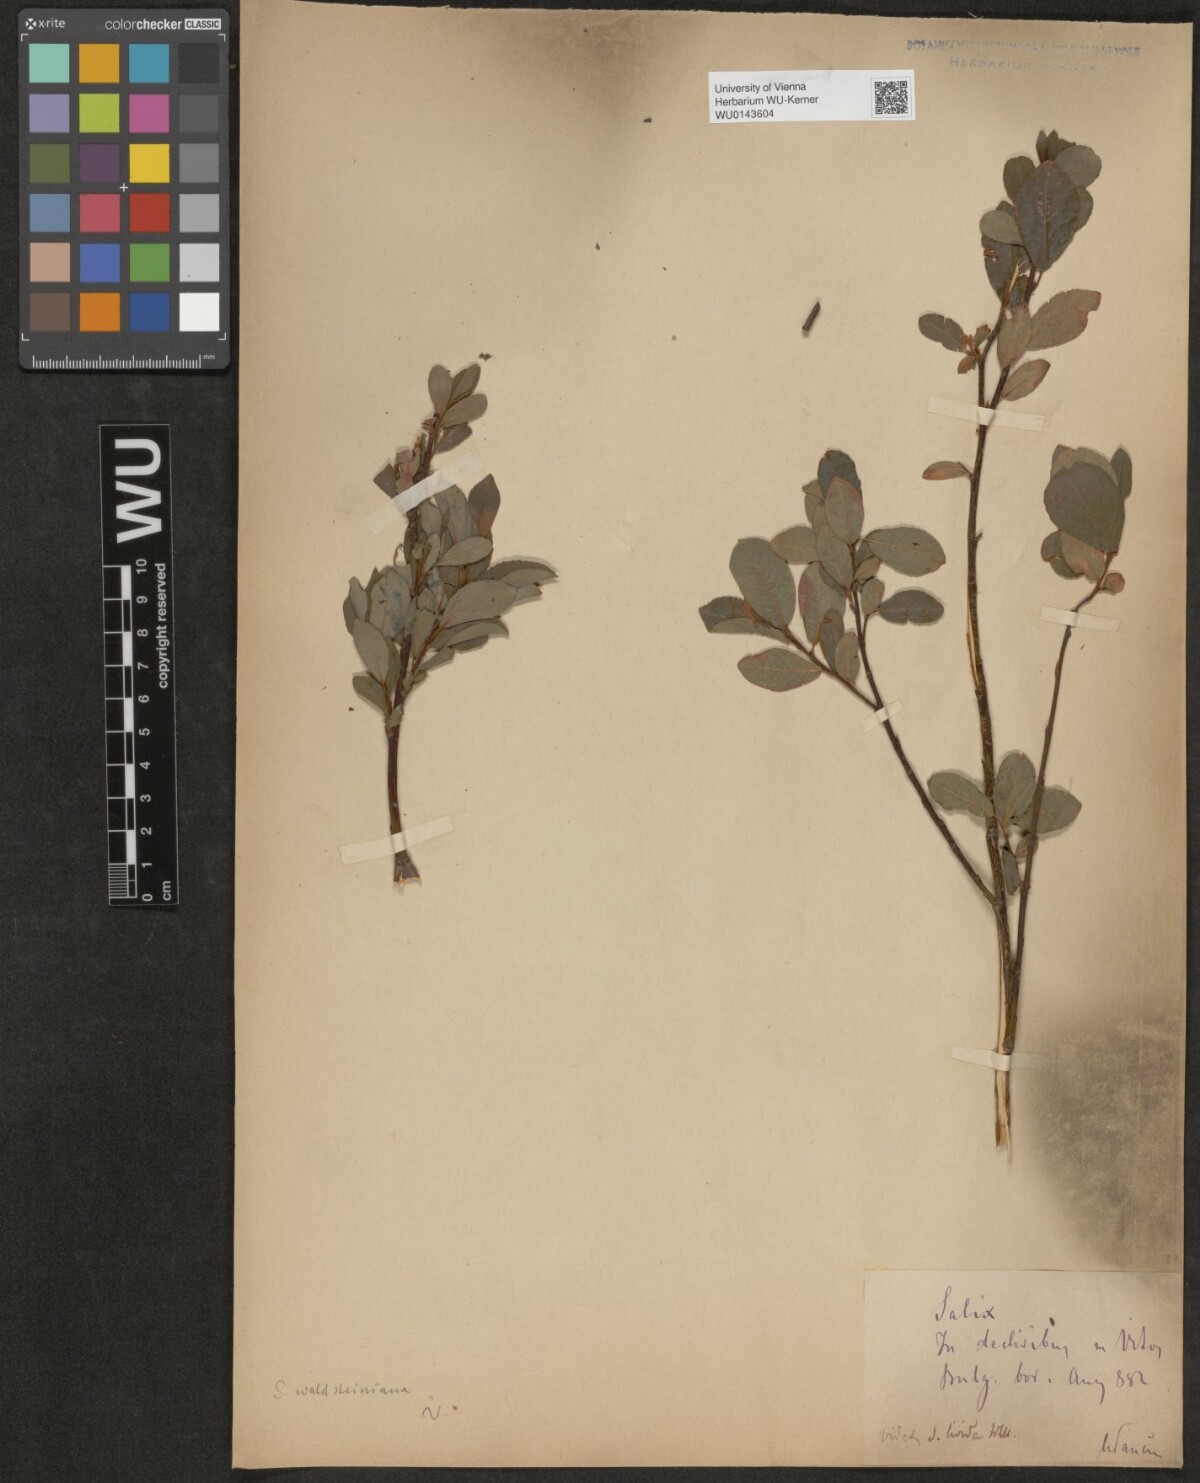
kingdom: Plantae
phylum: Tracheophyta
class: Magnoliopsida
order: Malpighiales
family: Salicaceae
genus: Salix
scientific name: Salix waldsteiniana
